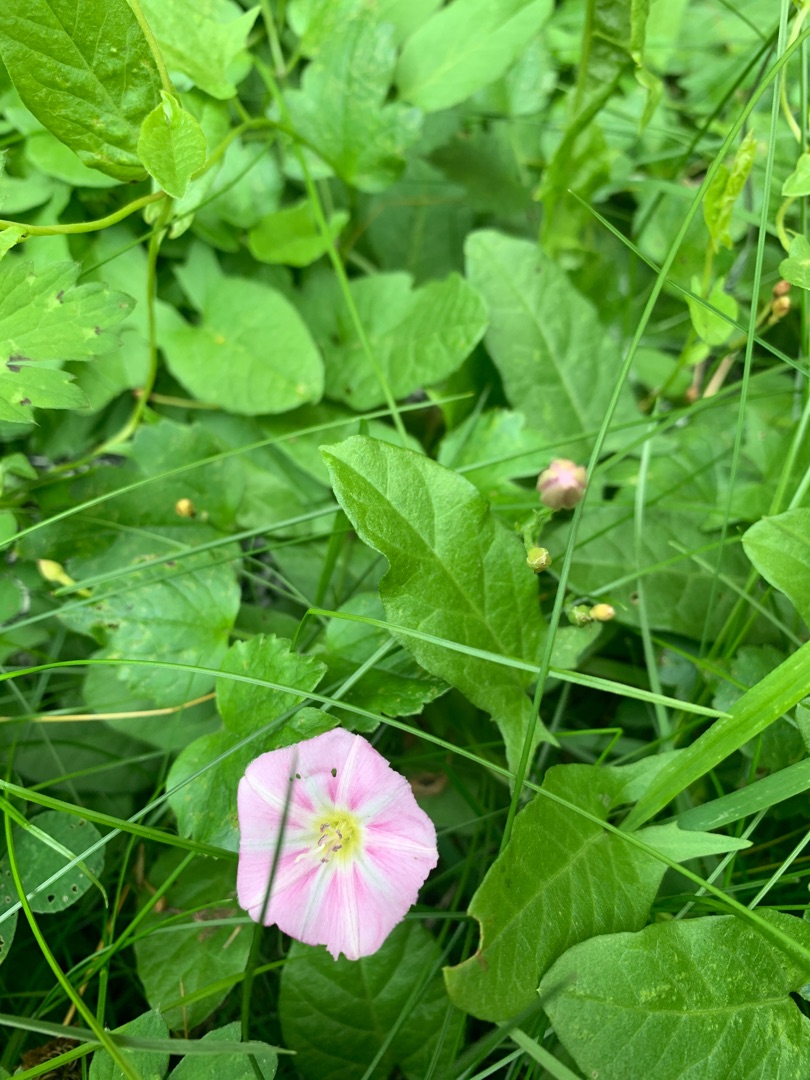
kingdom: Plantae
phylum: Tracheophyta
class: Magnoliopsida
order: Solanales
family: Convolvulaceae
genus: Convolvulus
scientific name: Convolvulus arvensis
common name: Ager-snerle
